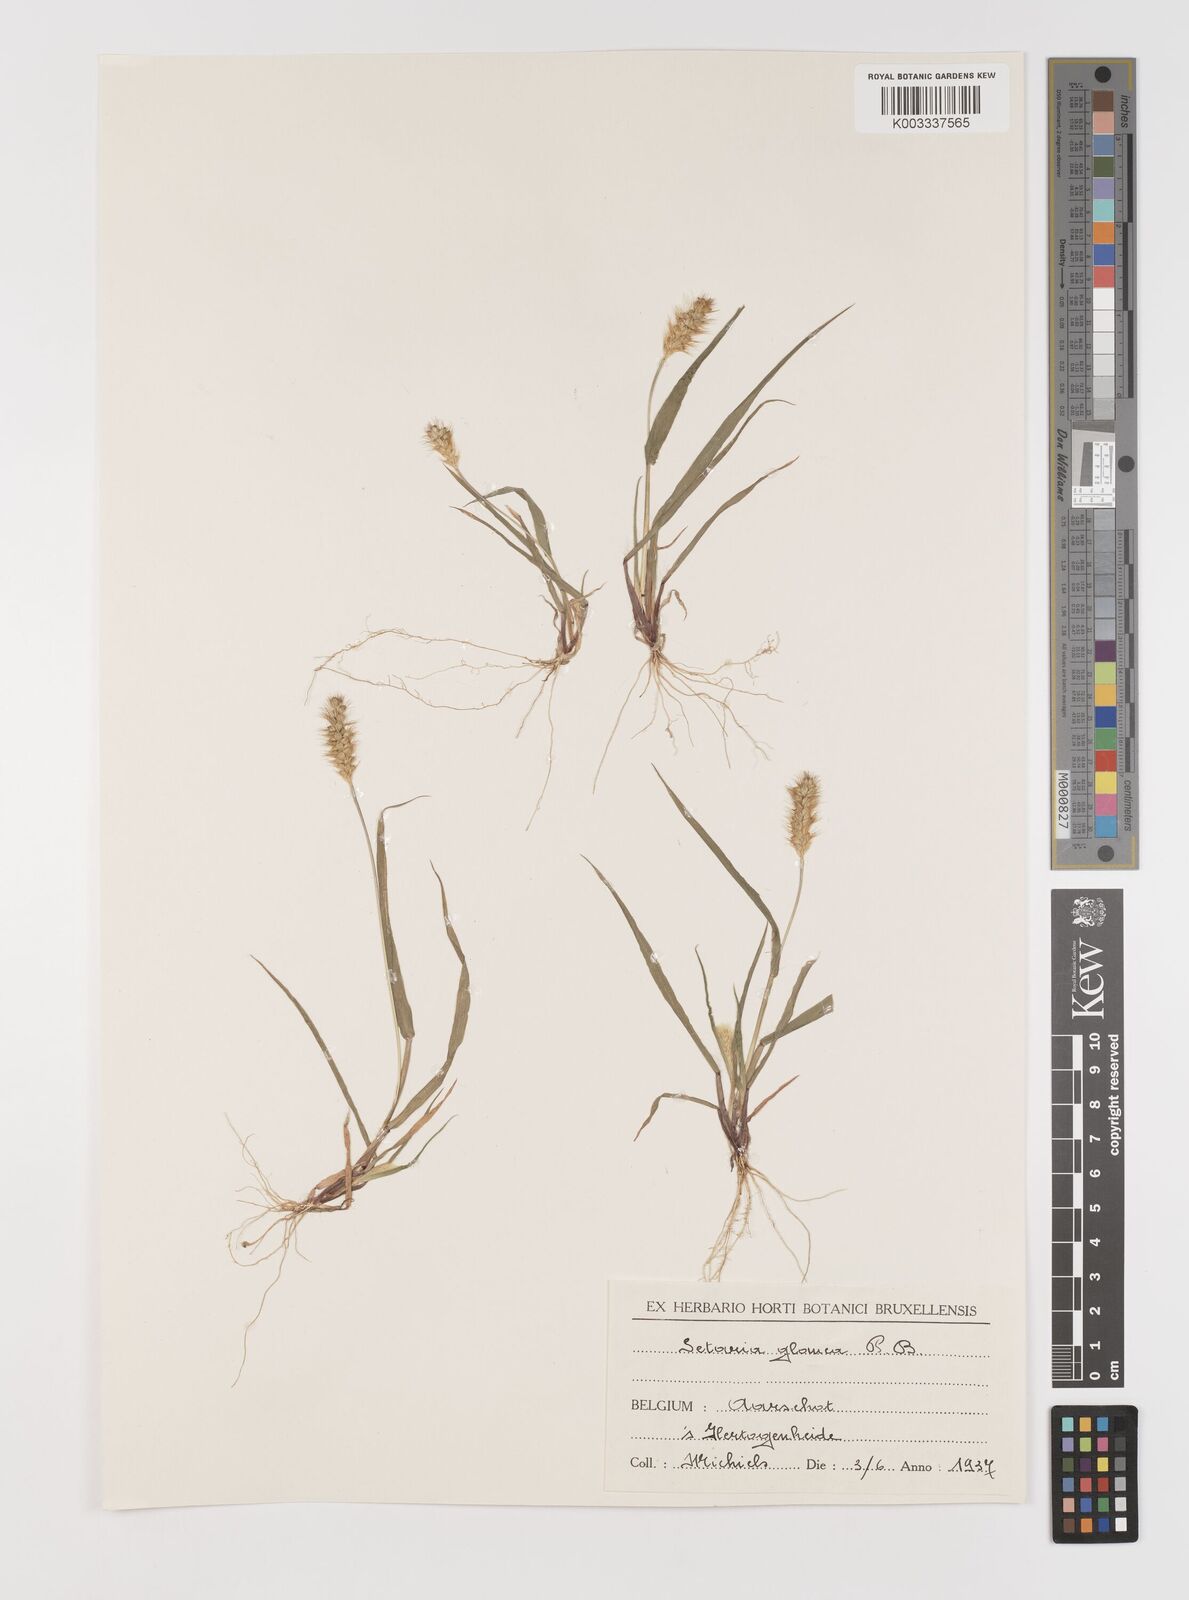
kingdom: Plantae
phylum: Tracheophyta
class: Liliopsida
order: Poales
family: Poaceae
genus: Setaria
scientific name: Setaria pumila
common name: Yellow bristle-grass
